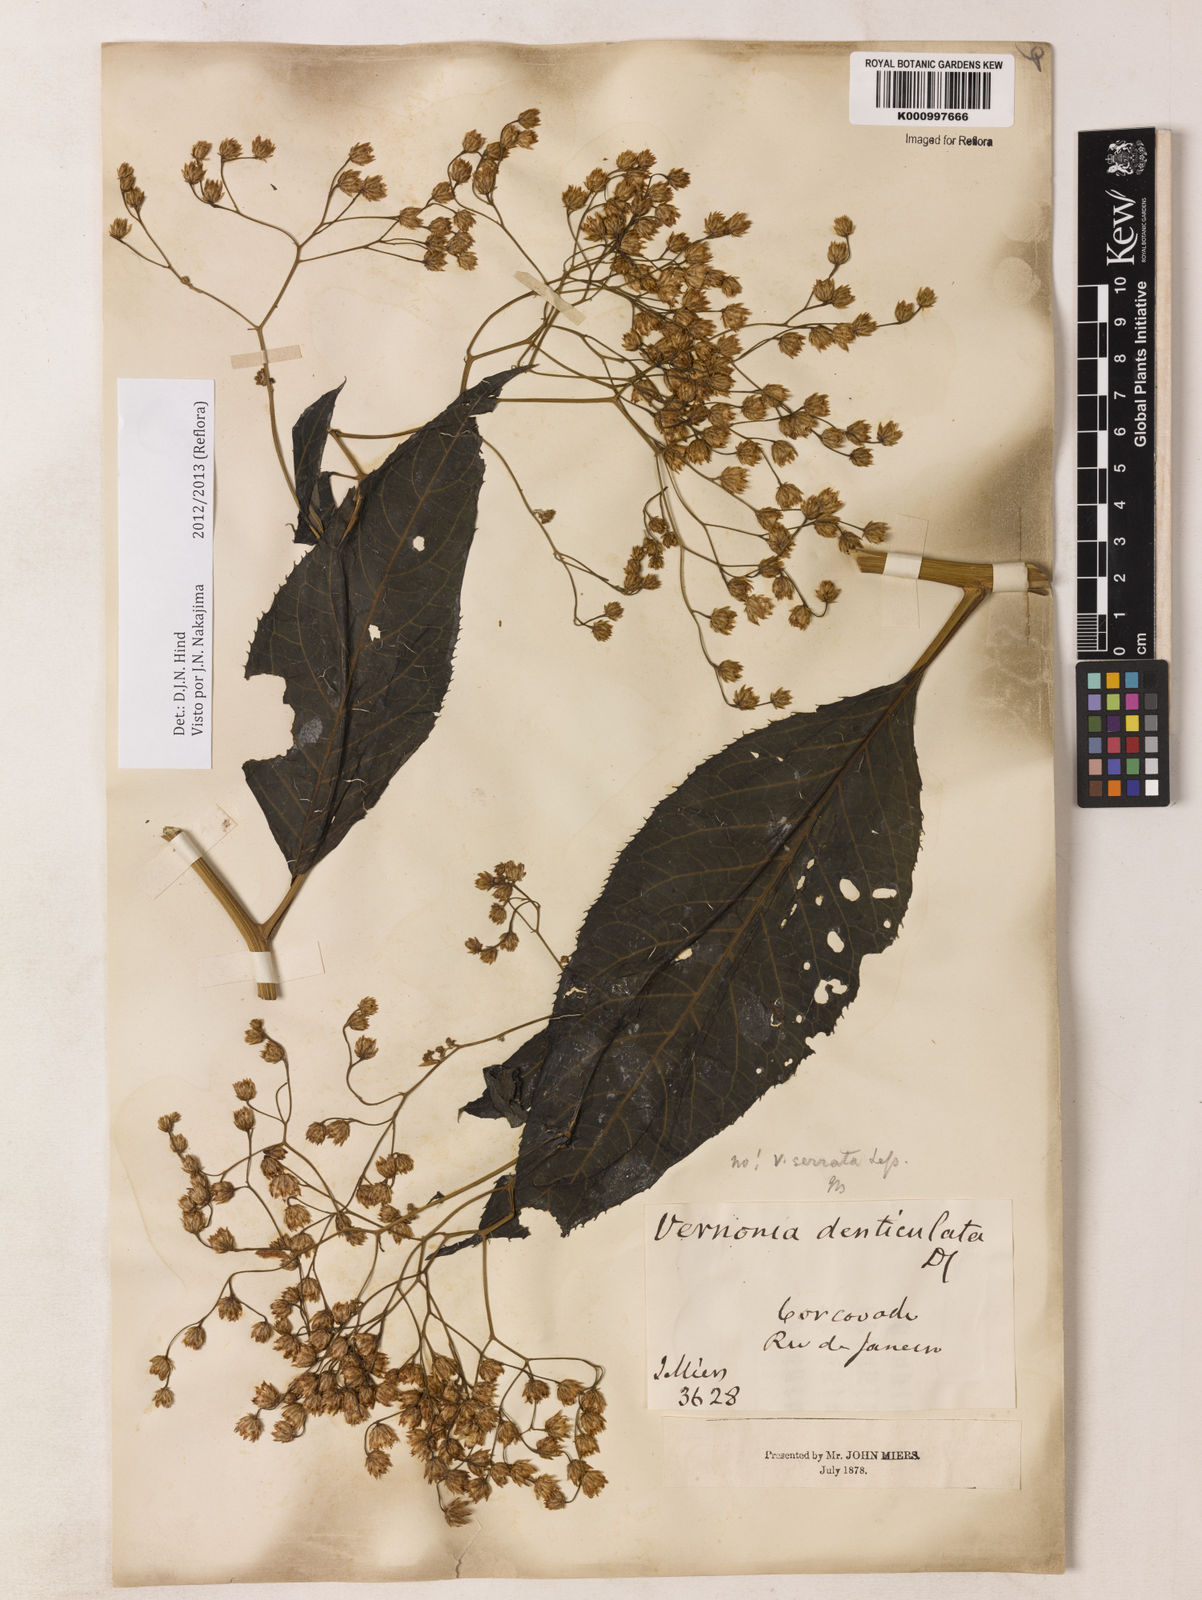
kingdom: Plantae
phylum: Tracheophyta
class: Magnoliopsida
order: Asterales
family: Asteraceae
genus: Dasyanthina
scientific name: Dasyanthina serrata
